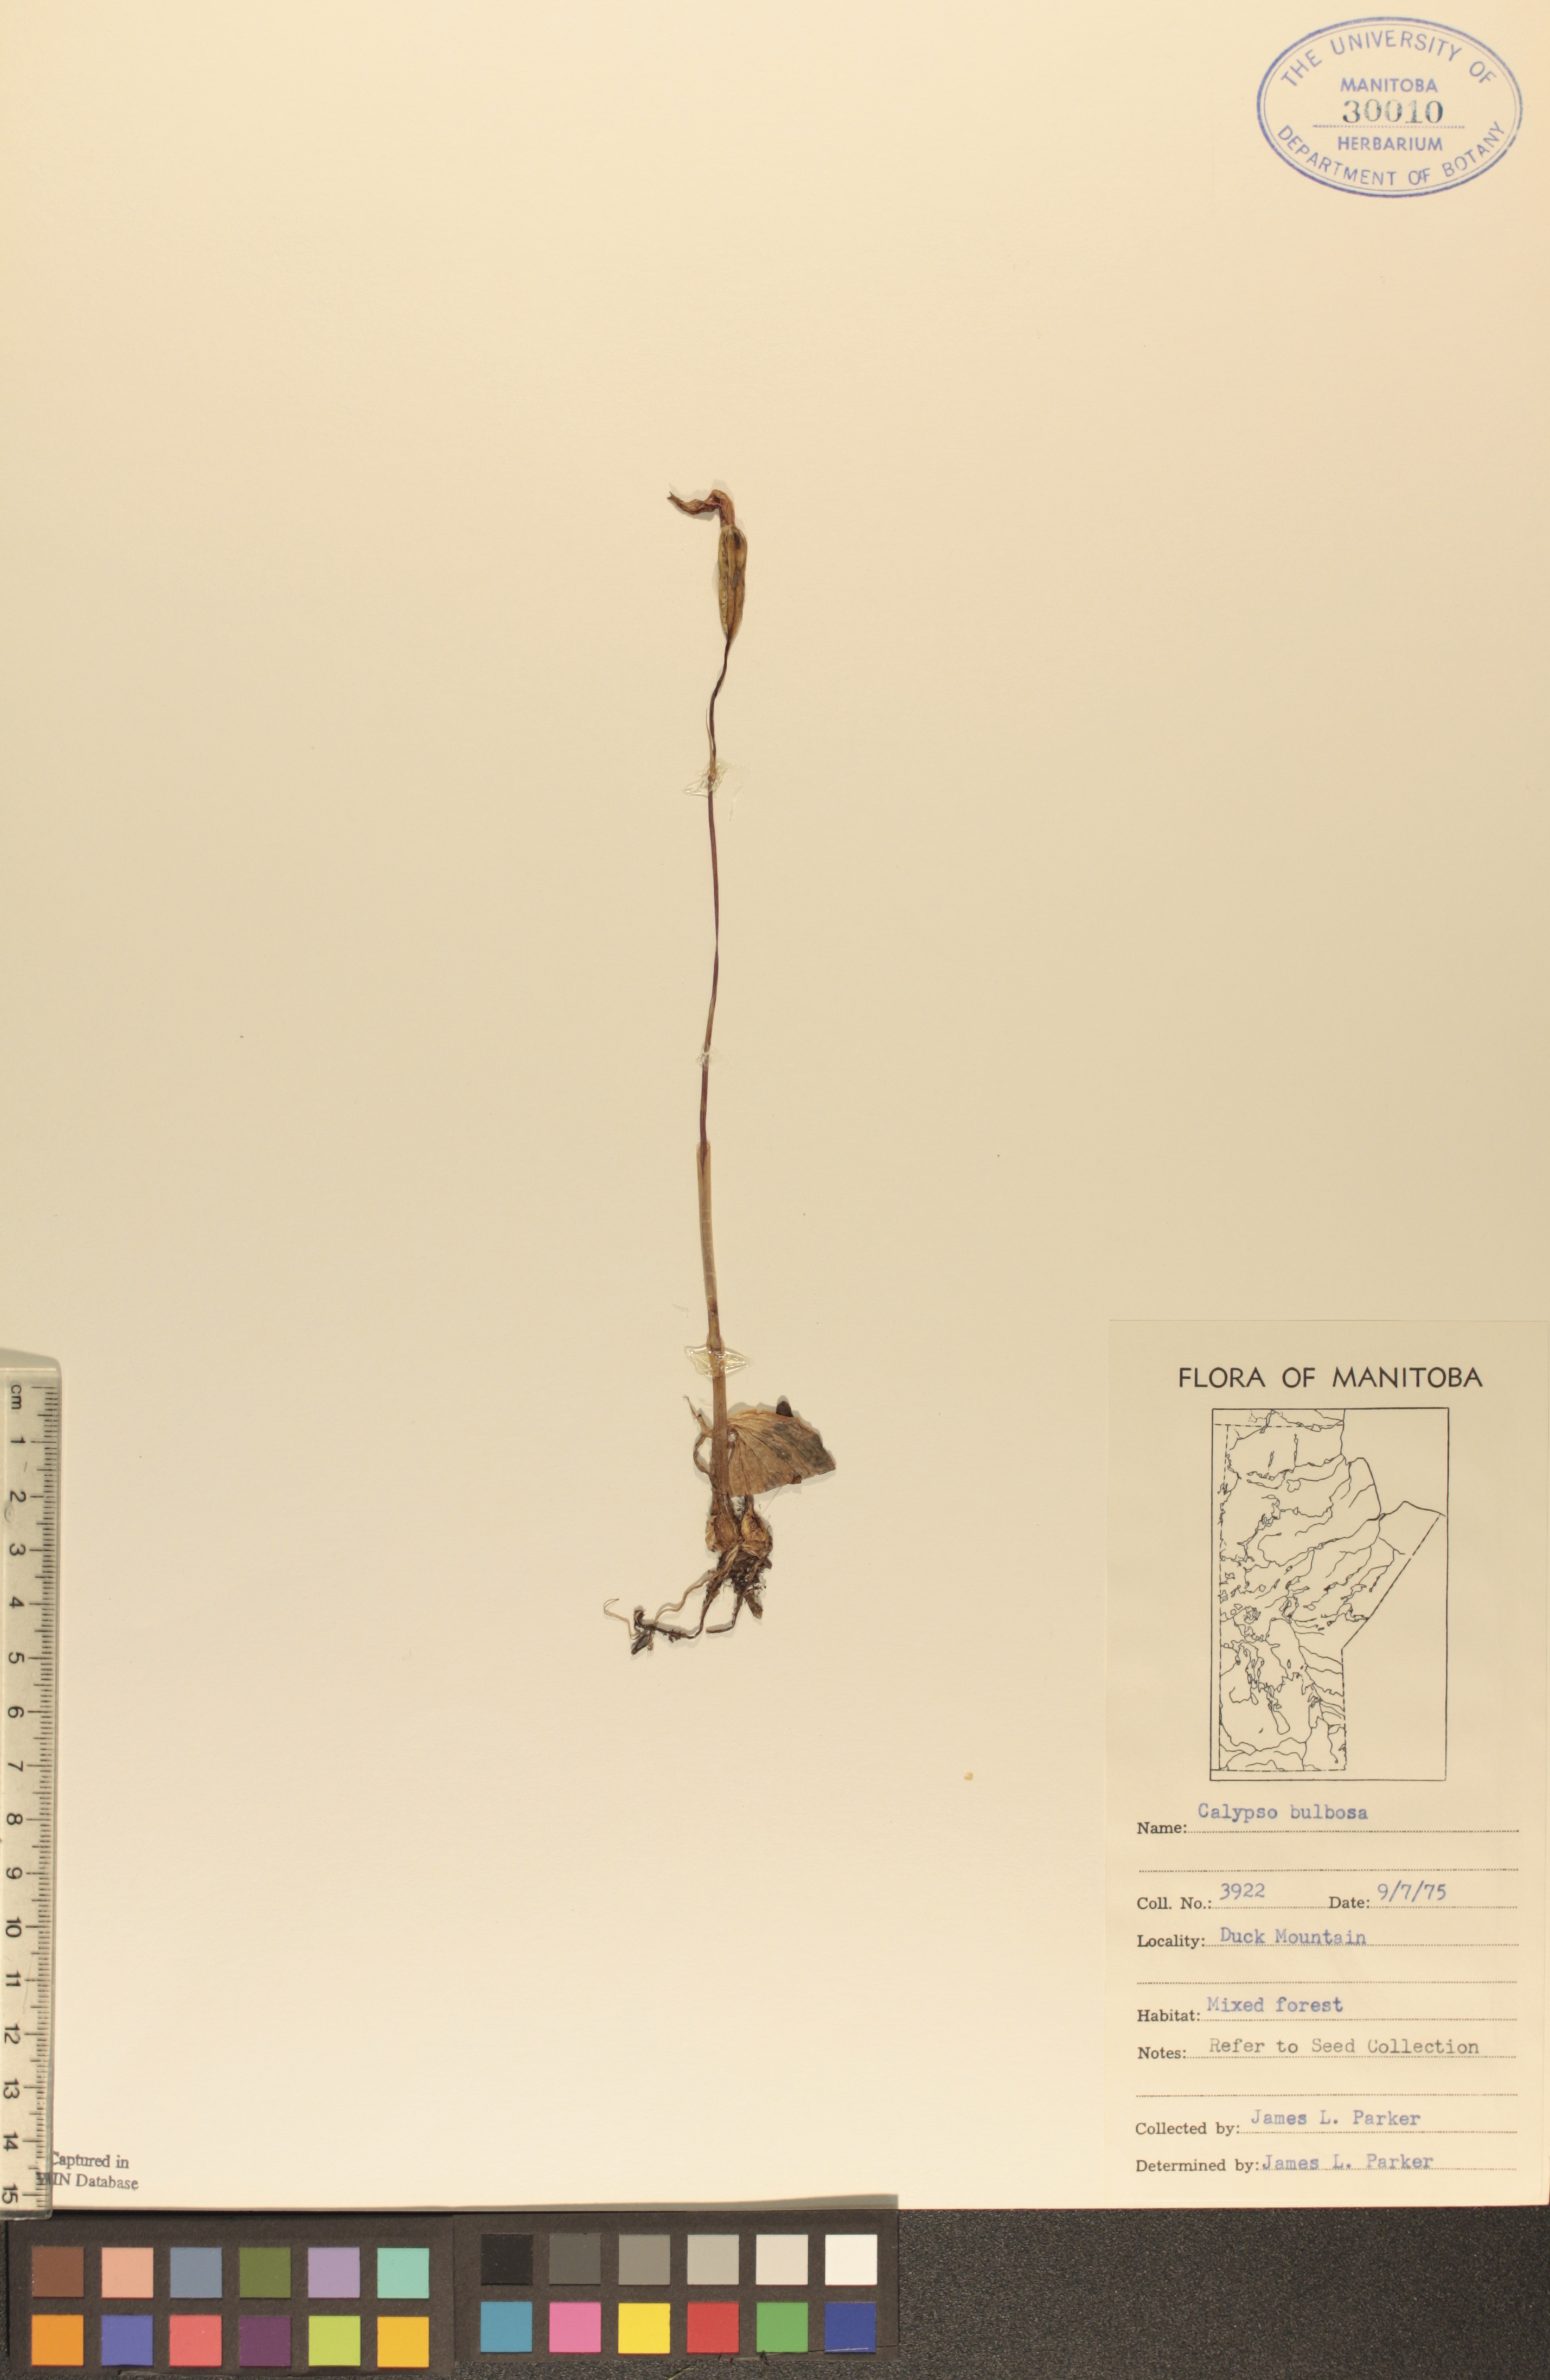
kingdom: Plantae
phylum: Tracheophyta
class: Liliopsida
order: Asparagales
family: Orchidaceae
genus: Calypso
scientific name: Calypso bulbosa
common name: Calypso
